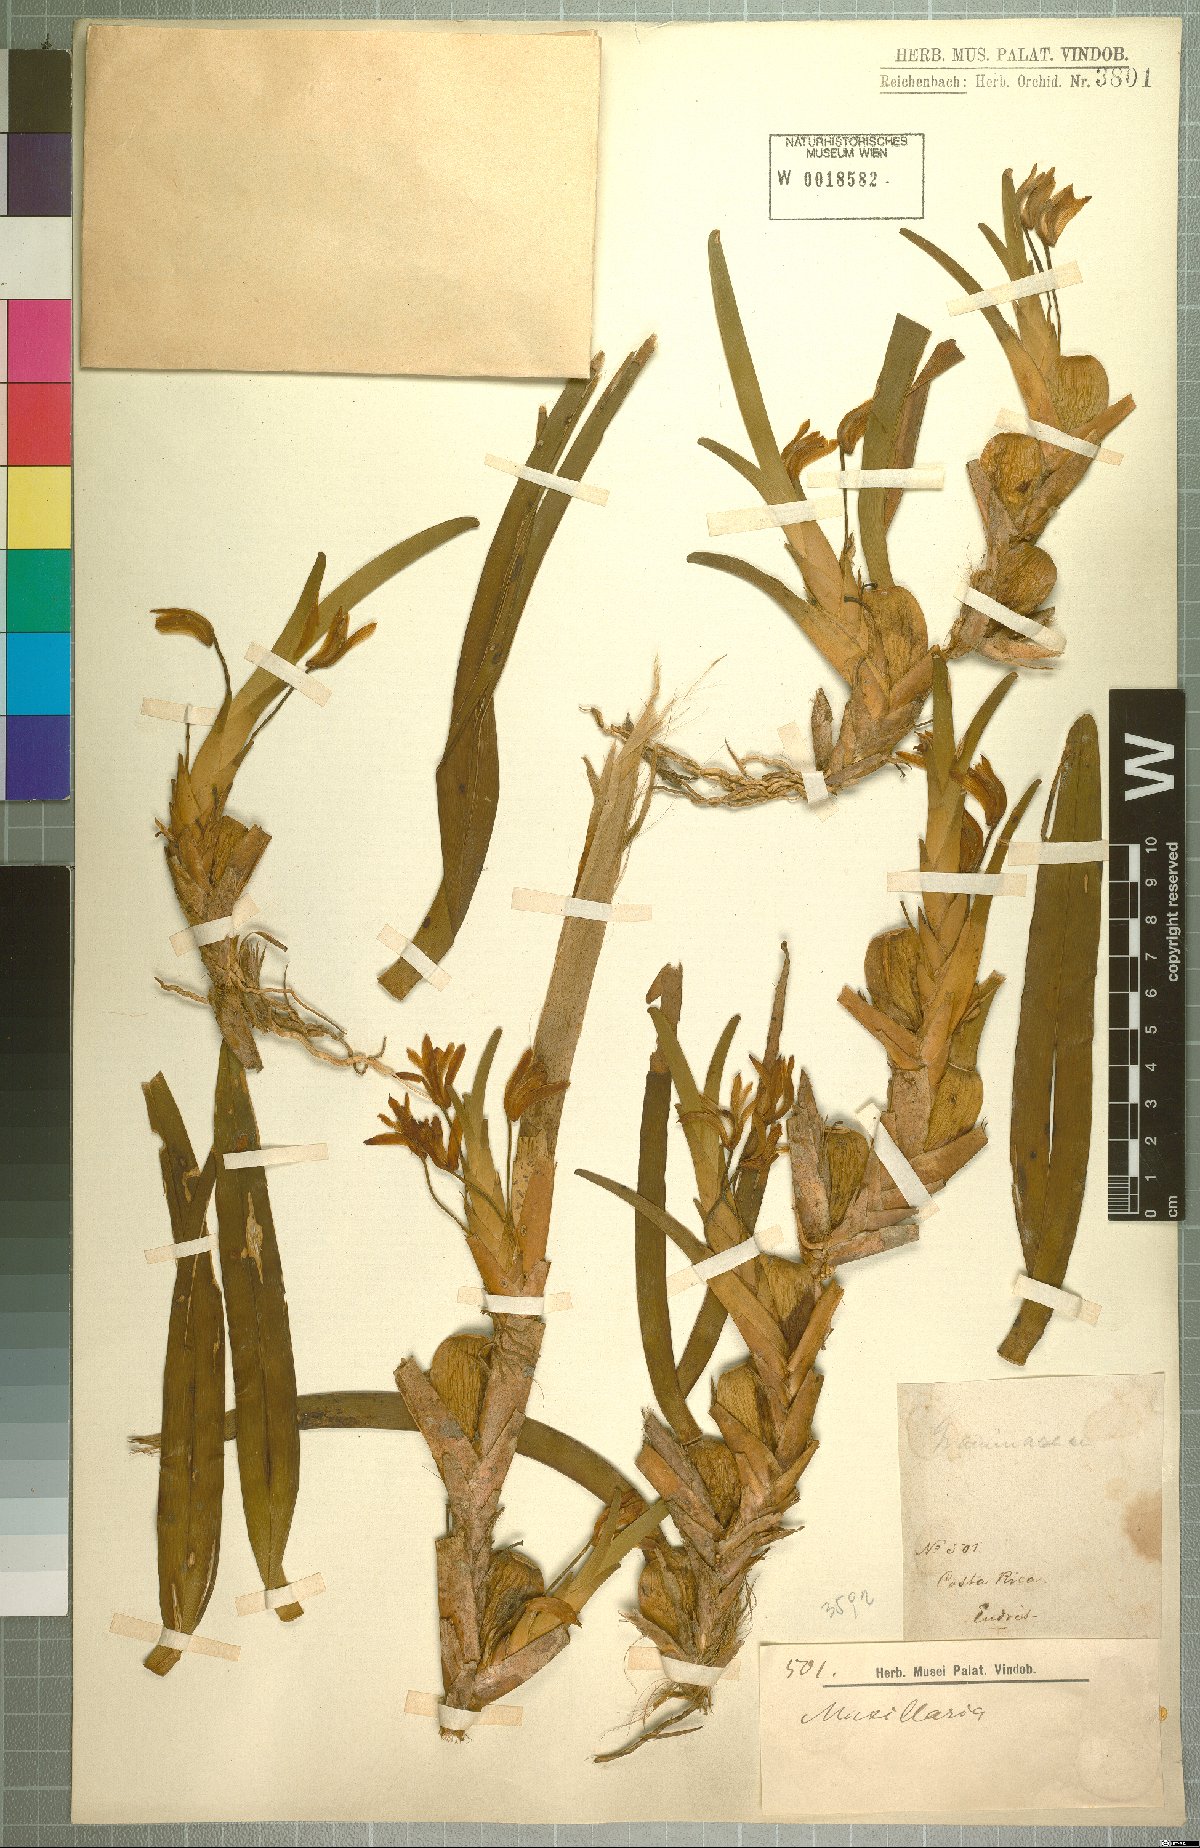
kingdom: Plantae
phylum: Tracheophyta
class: Liliopsida
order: Asparagales
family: Orchidaceae
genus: Maxillaria
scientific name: Maxillaria
